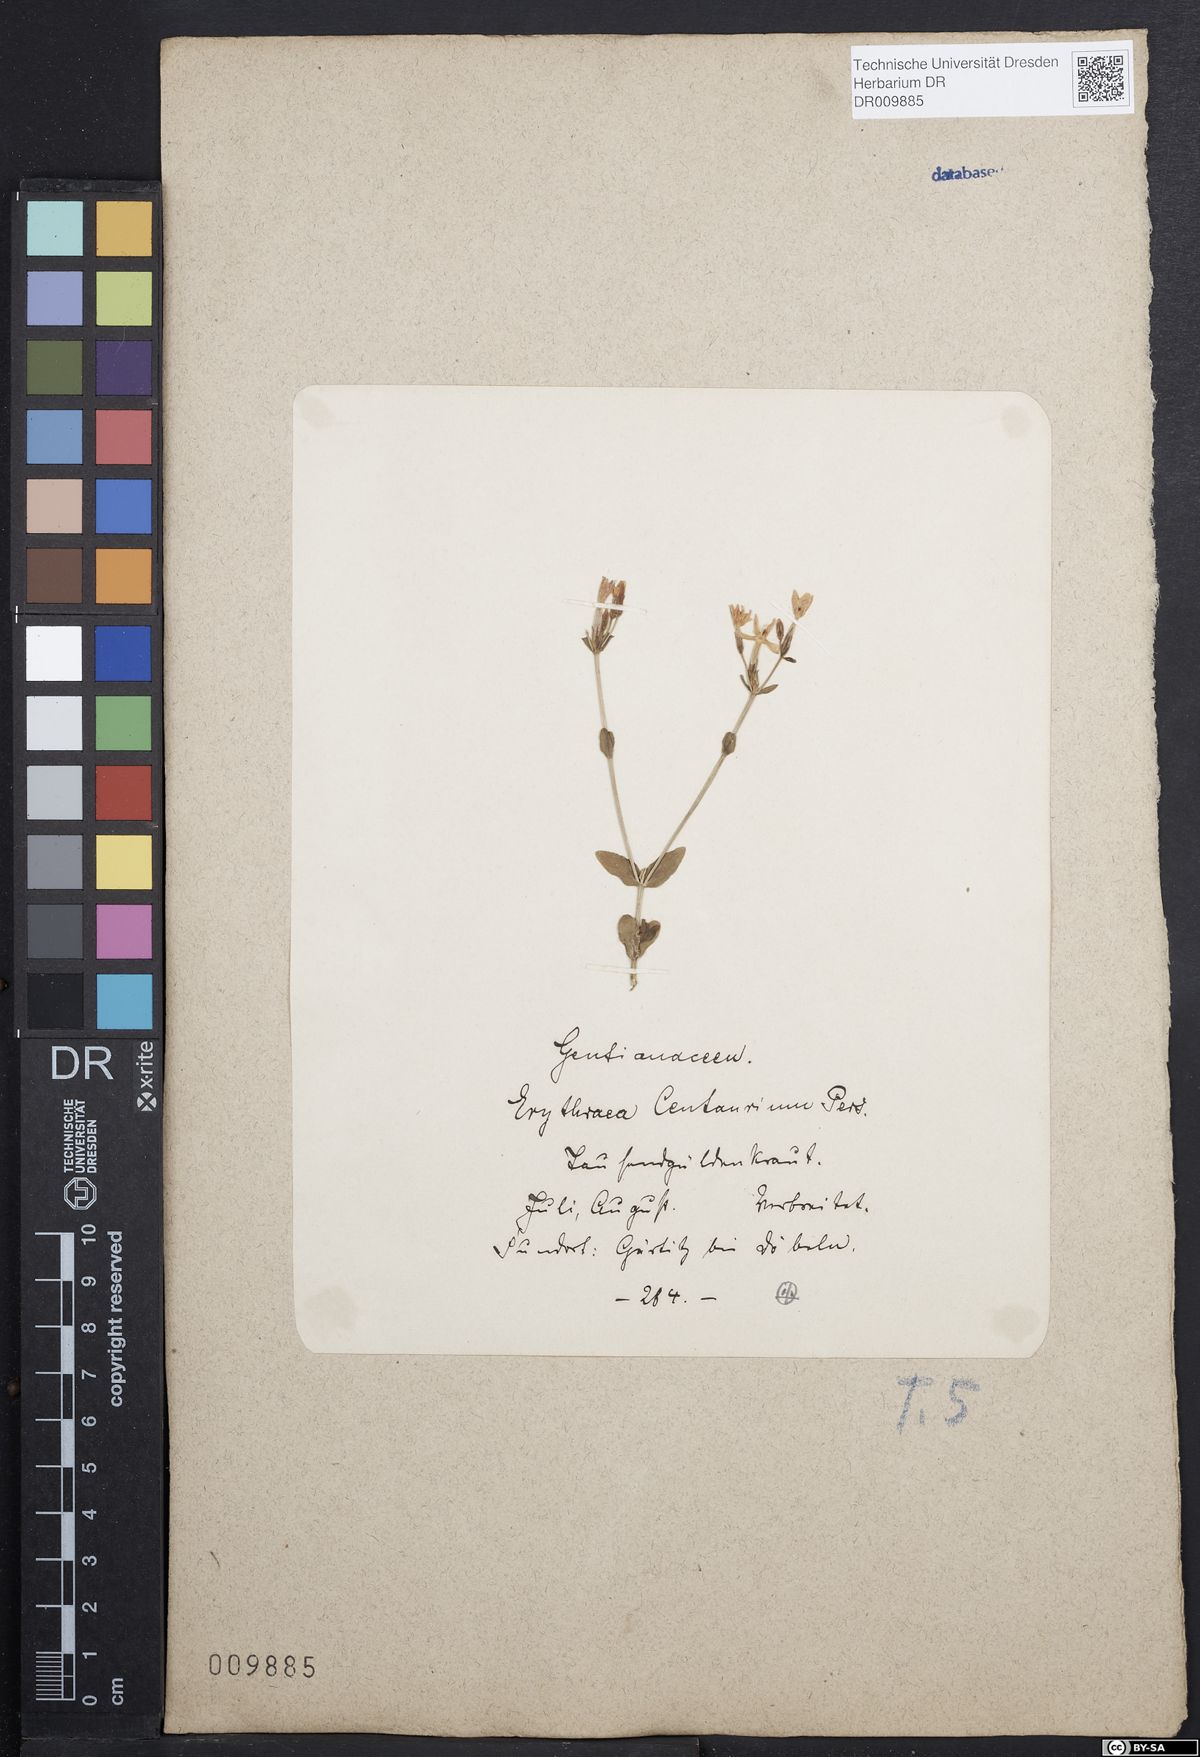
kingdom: Plantae
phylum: Tracheophyta
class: Magnoliopsida
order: Gentianales
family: Gentianaceae
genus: Centaurium
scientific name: Centaurium erythraea
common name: Common centaury
